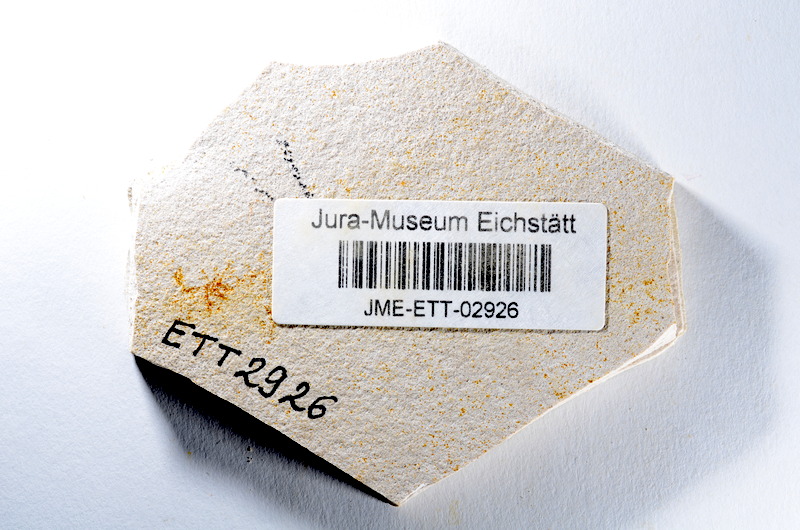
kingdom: Animalia
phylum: Chordata
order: Salmoniformes
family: Orthogonikleithridae
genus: Orthogonikleithrus
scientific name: Orthogonikleithrus hoelli
